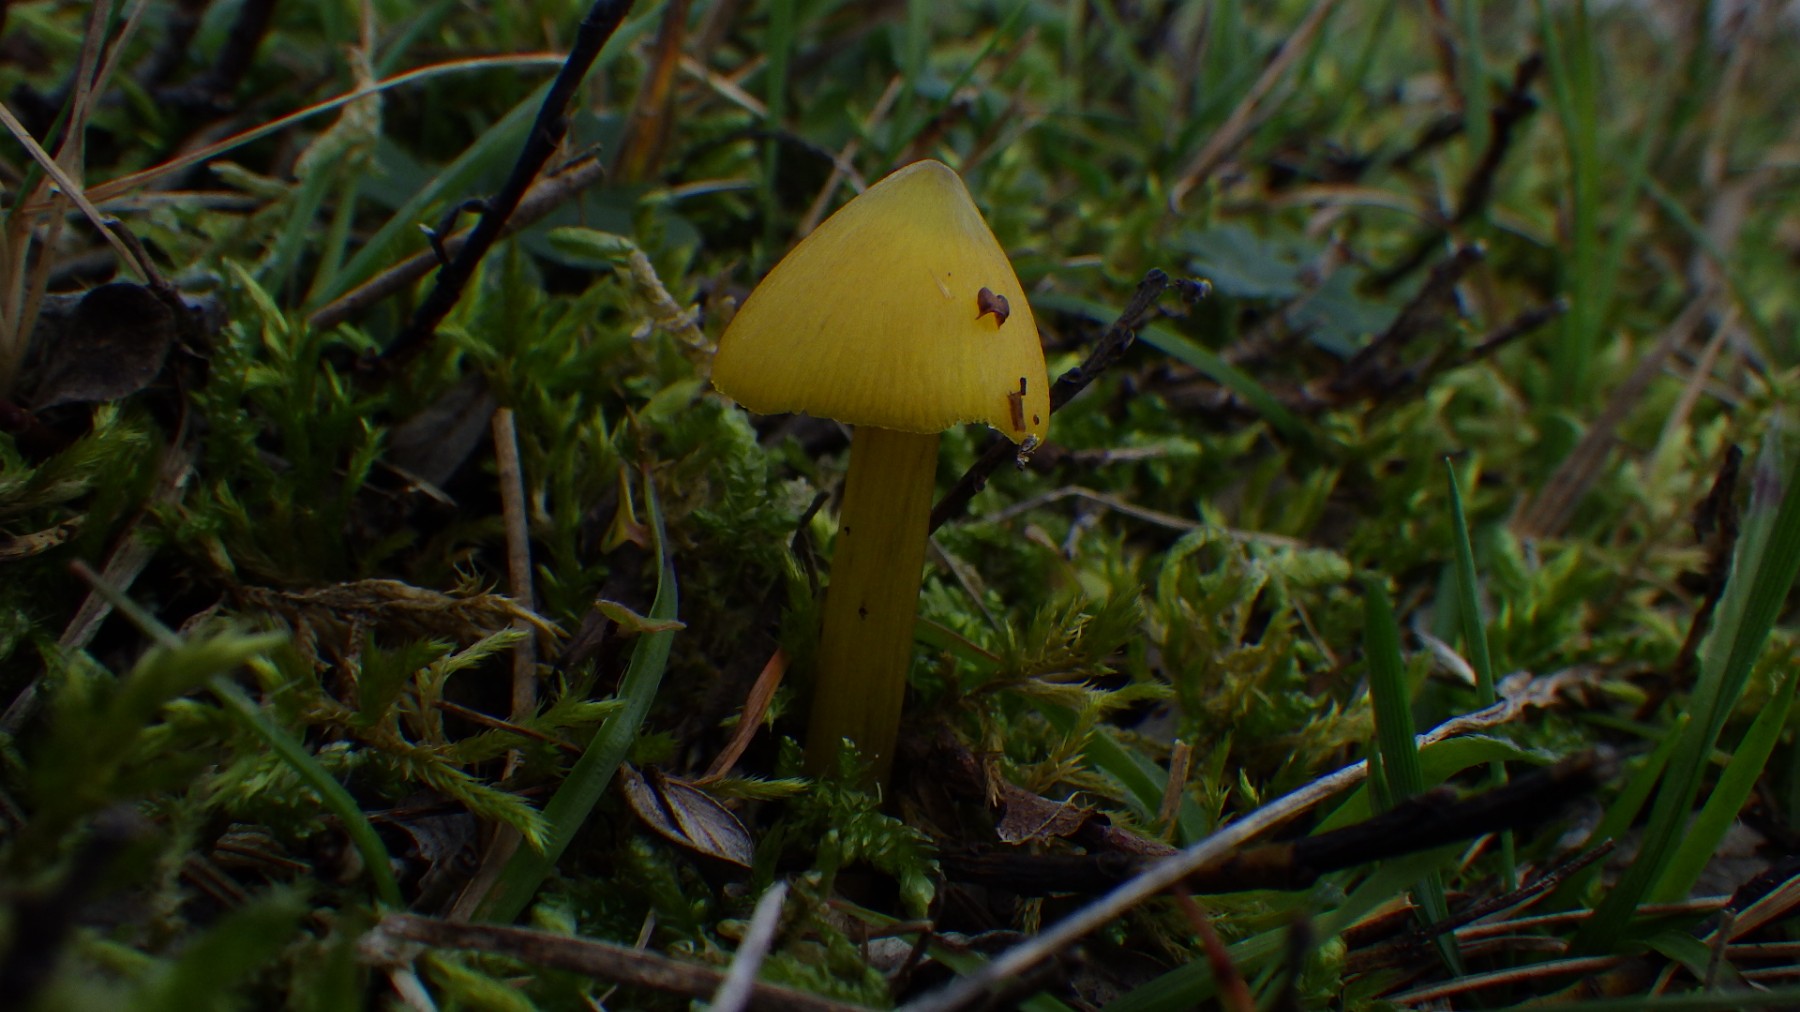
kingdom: Fungi
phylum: Basidiomycota
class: Agaricomycetes
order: Agaricales
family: Hygrophoraceae
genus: Hygrocybe
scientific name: Hygrocybe conica
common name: kegle-vokshat
